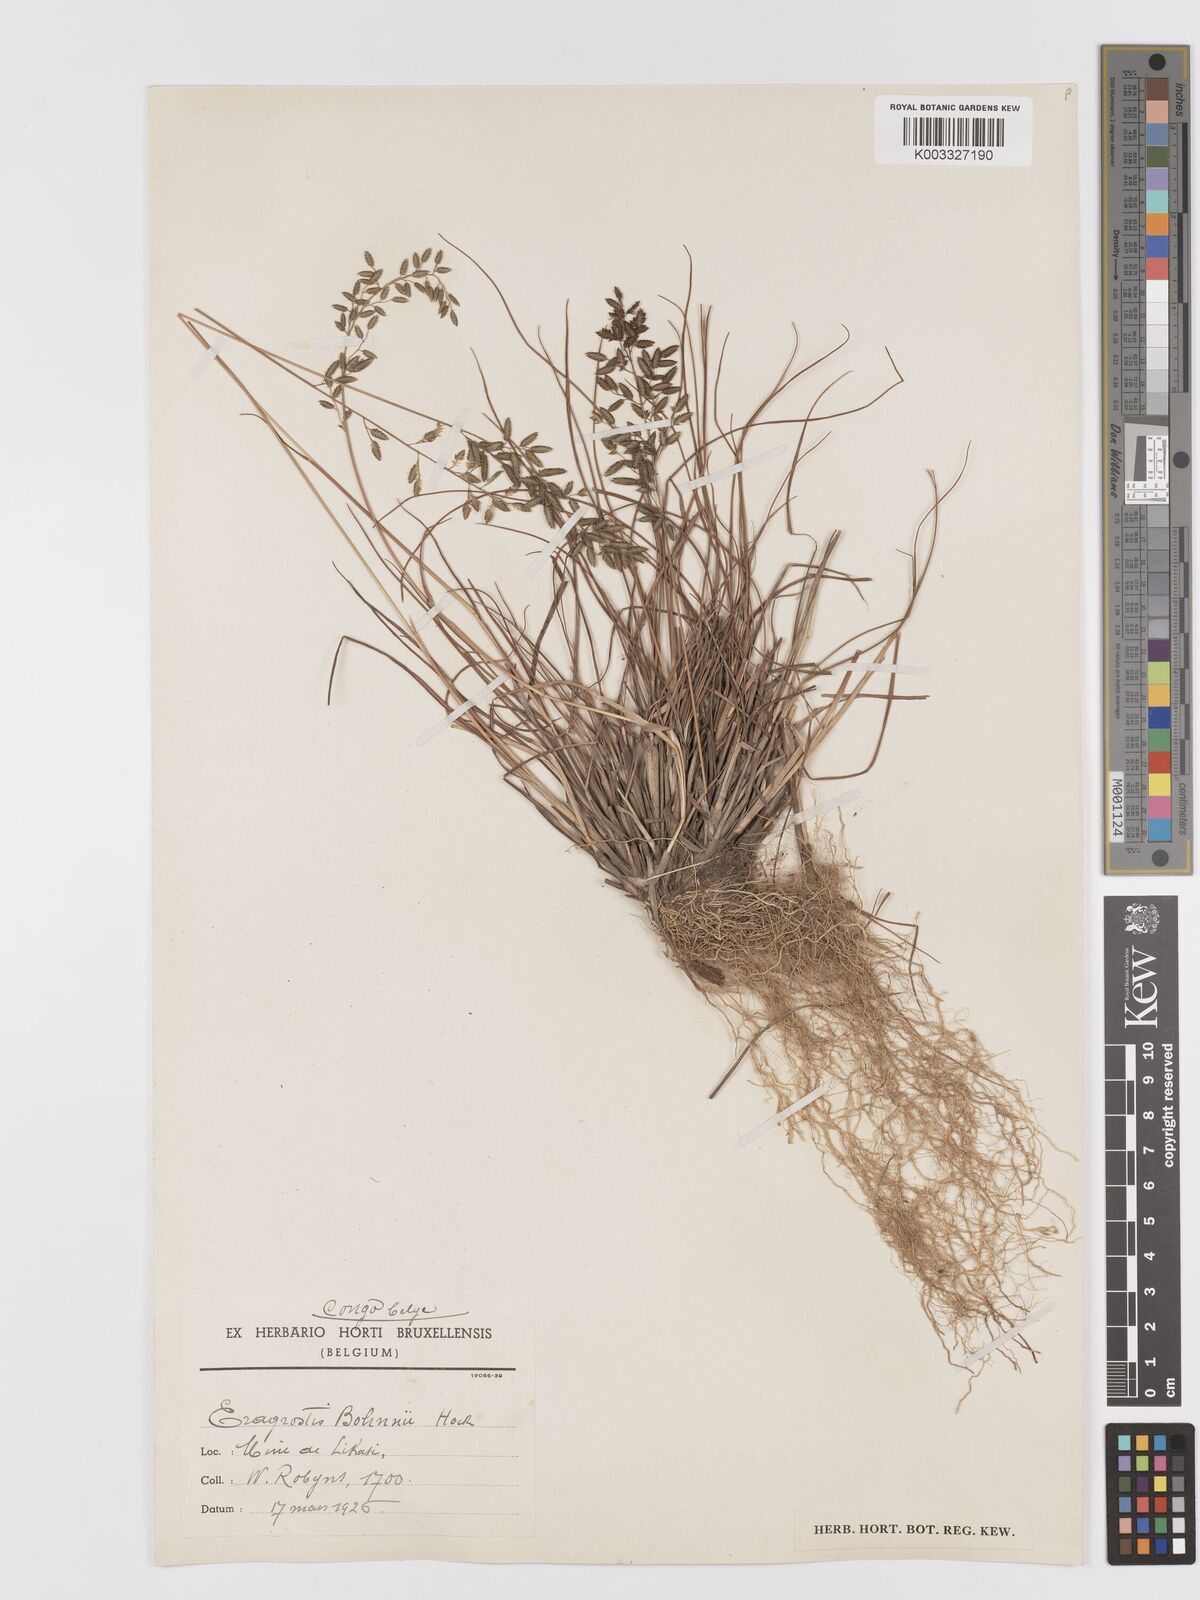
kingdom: Plantae
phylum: Tracheophyta
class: Liliopsida
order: Poales
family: Poaceae
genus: Eragrostis
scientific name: Eragrostis racemosa
